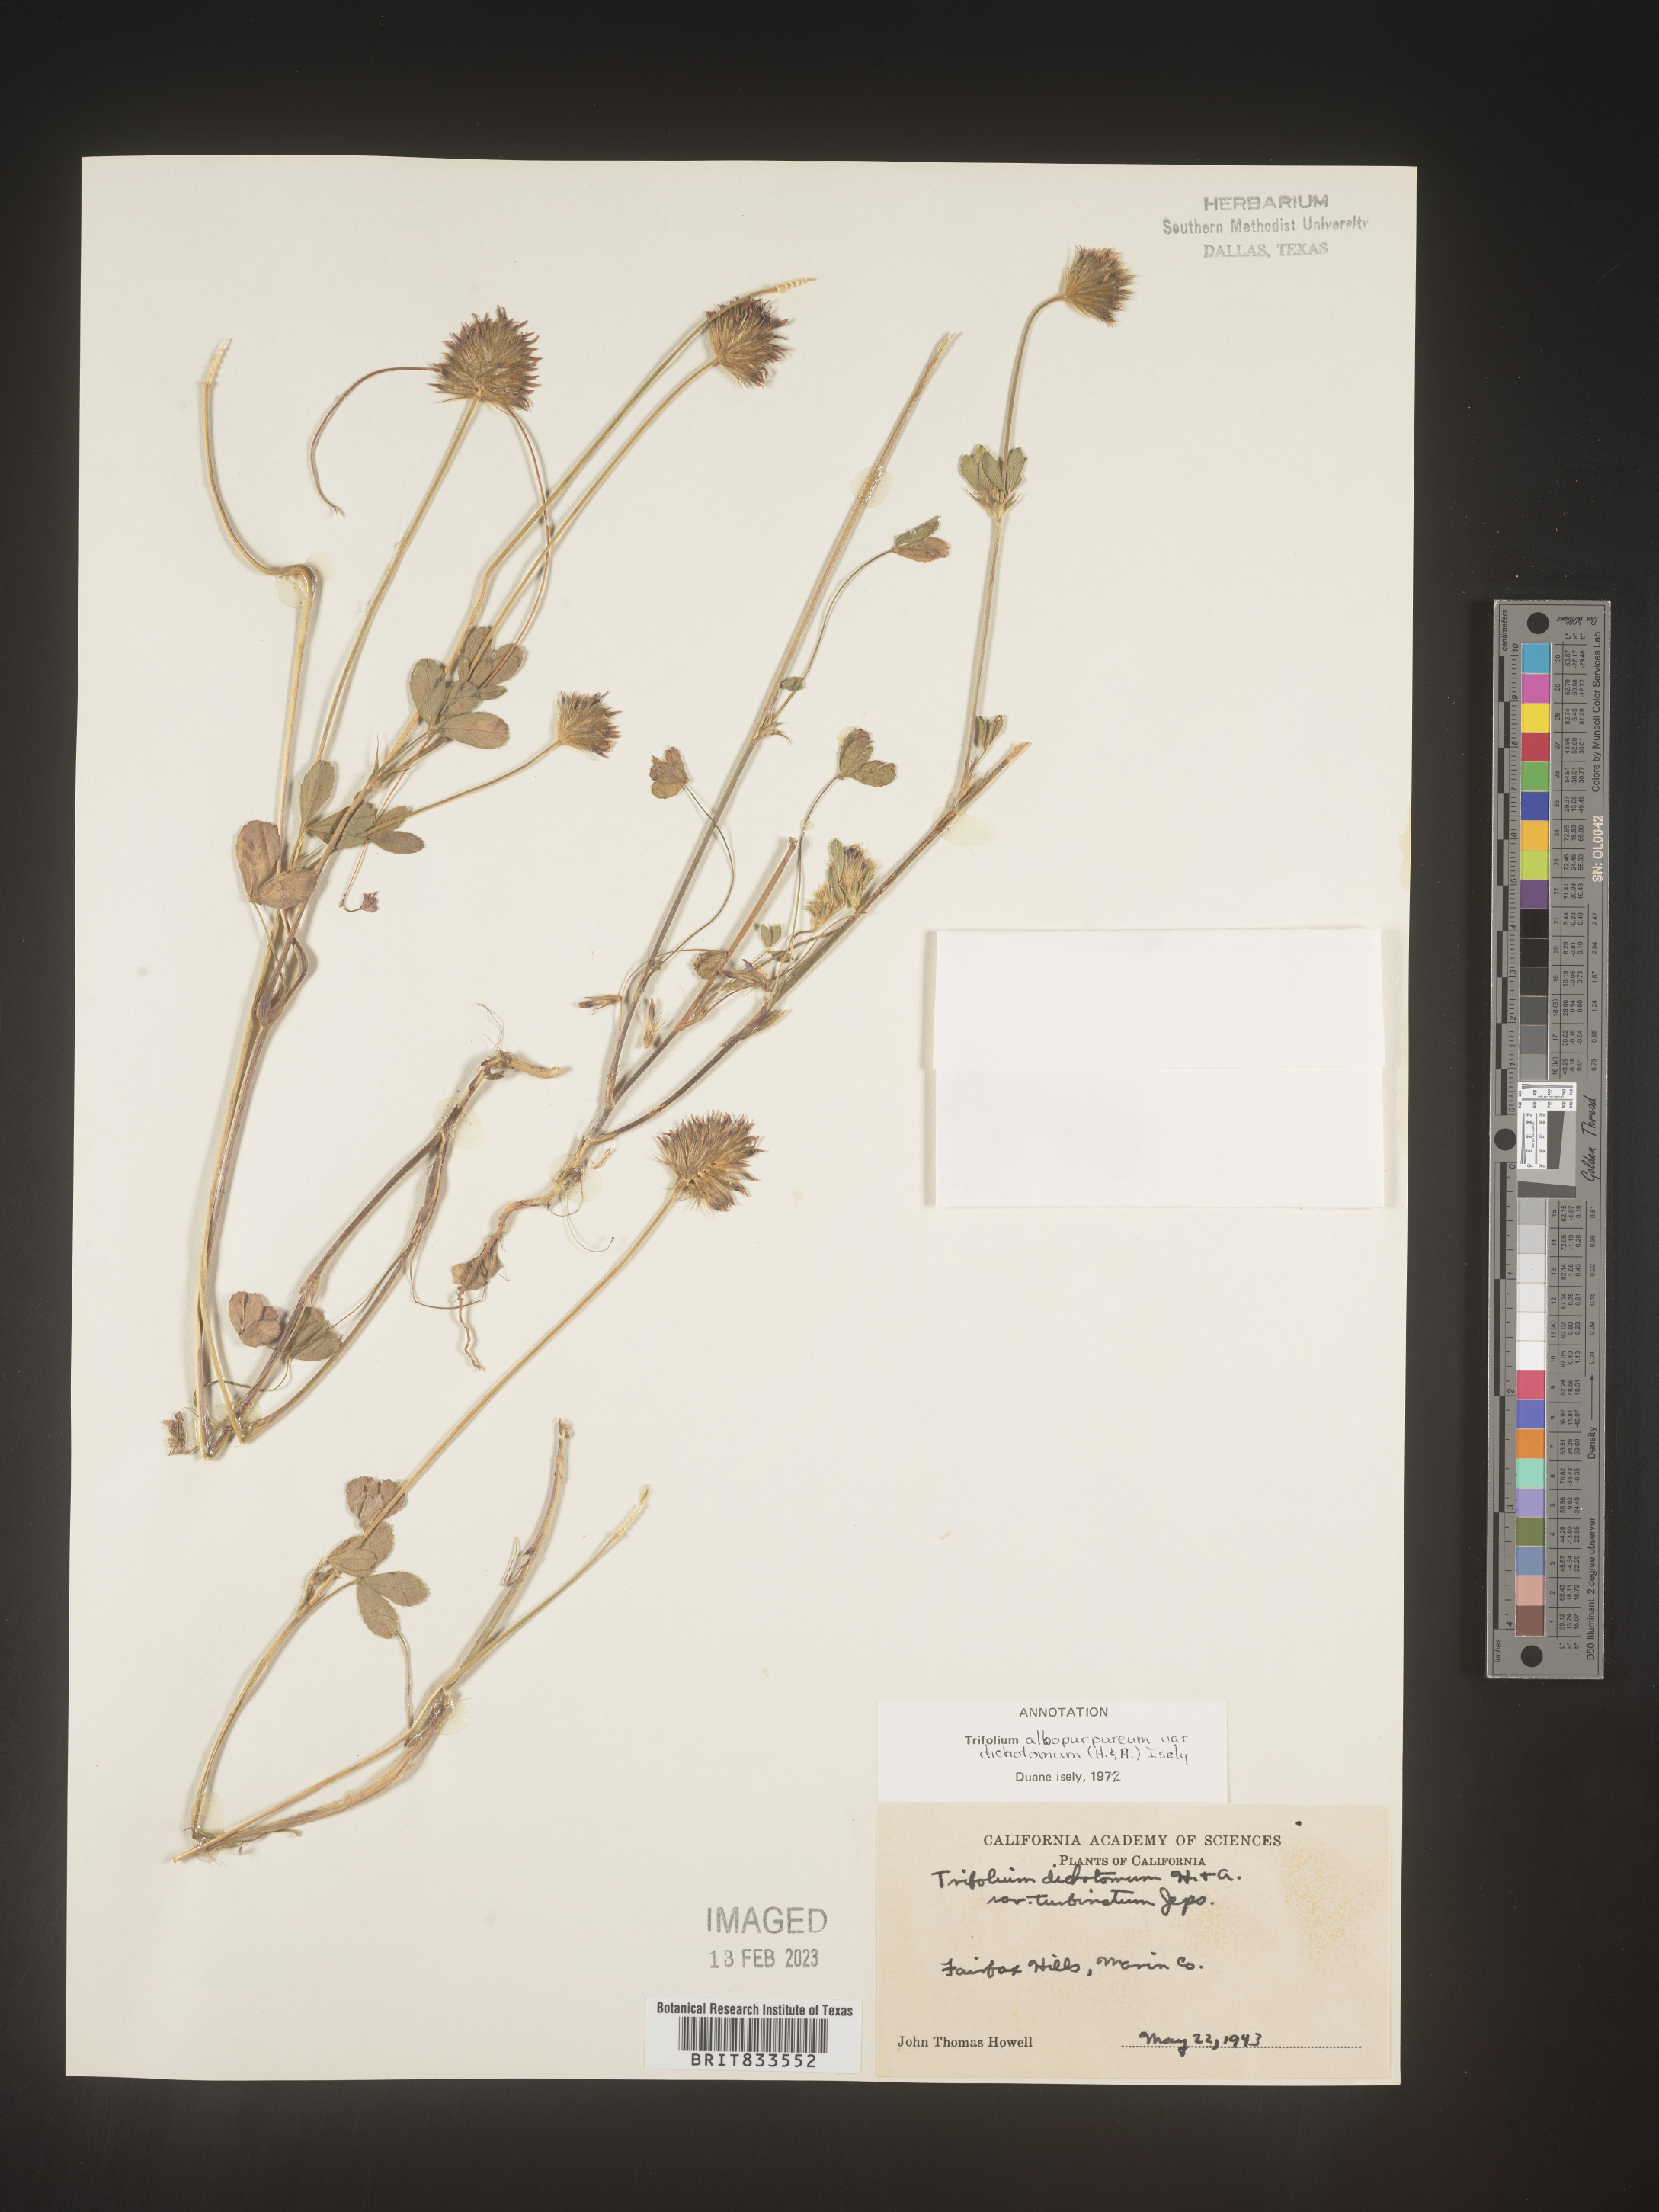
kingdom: Plantae
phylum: Tracheophyta
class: Magnoliopsida
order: Fabales
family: Fabaceae
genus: Trifolium
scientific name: Trifolium
